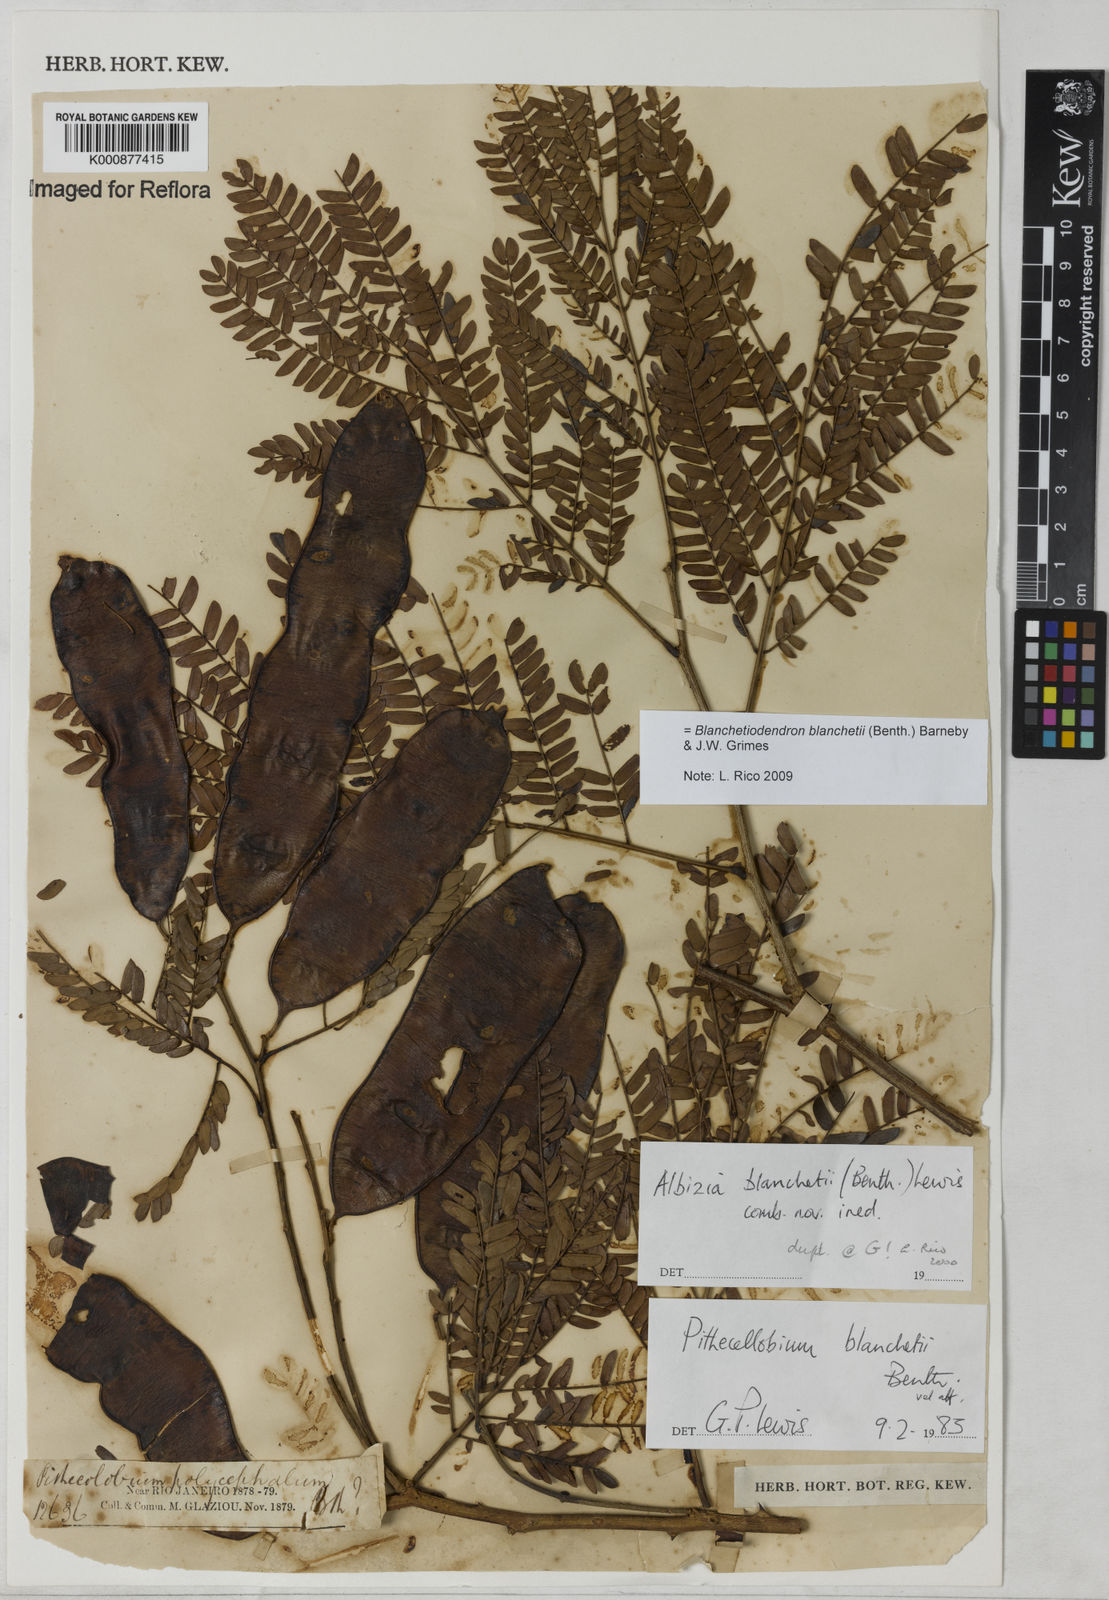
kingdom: Plantae
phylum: Tracheophyta
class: Magnoliopsida
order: Fabales
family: Fabaceae
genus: Blanchetiodendron
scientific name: Blanchetiodendron blanchetii
